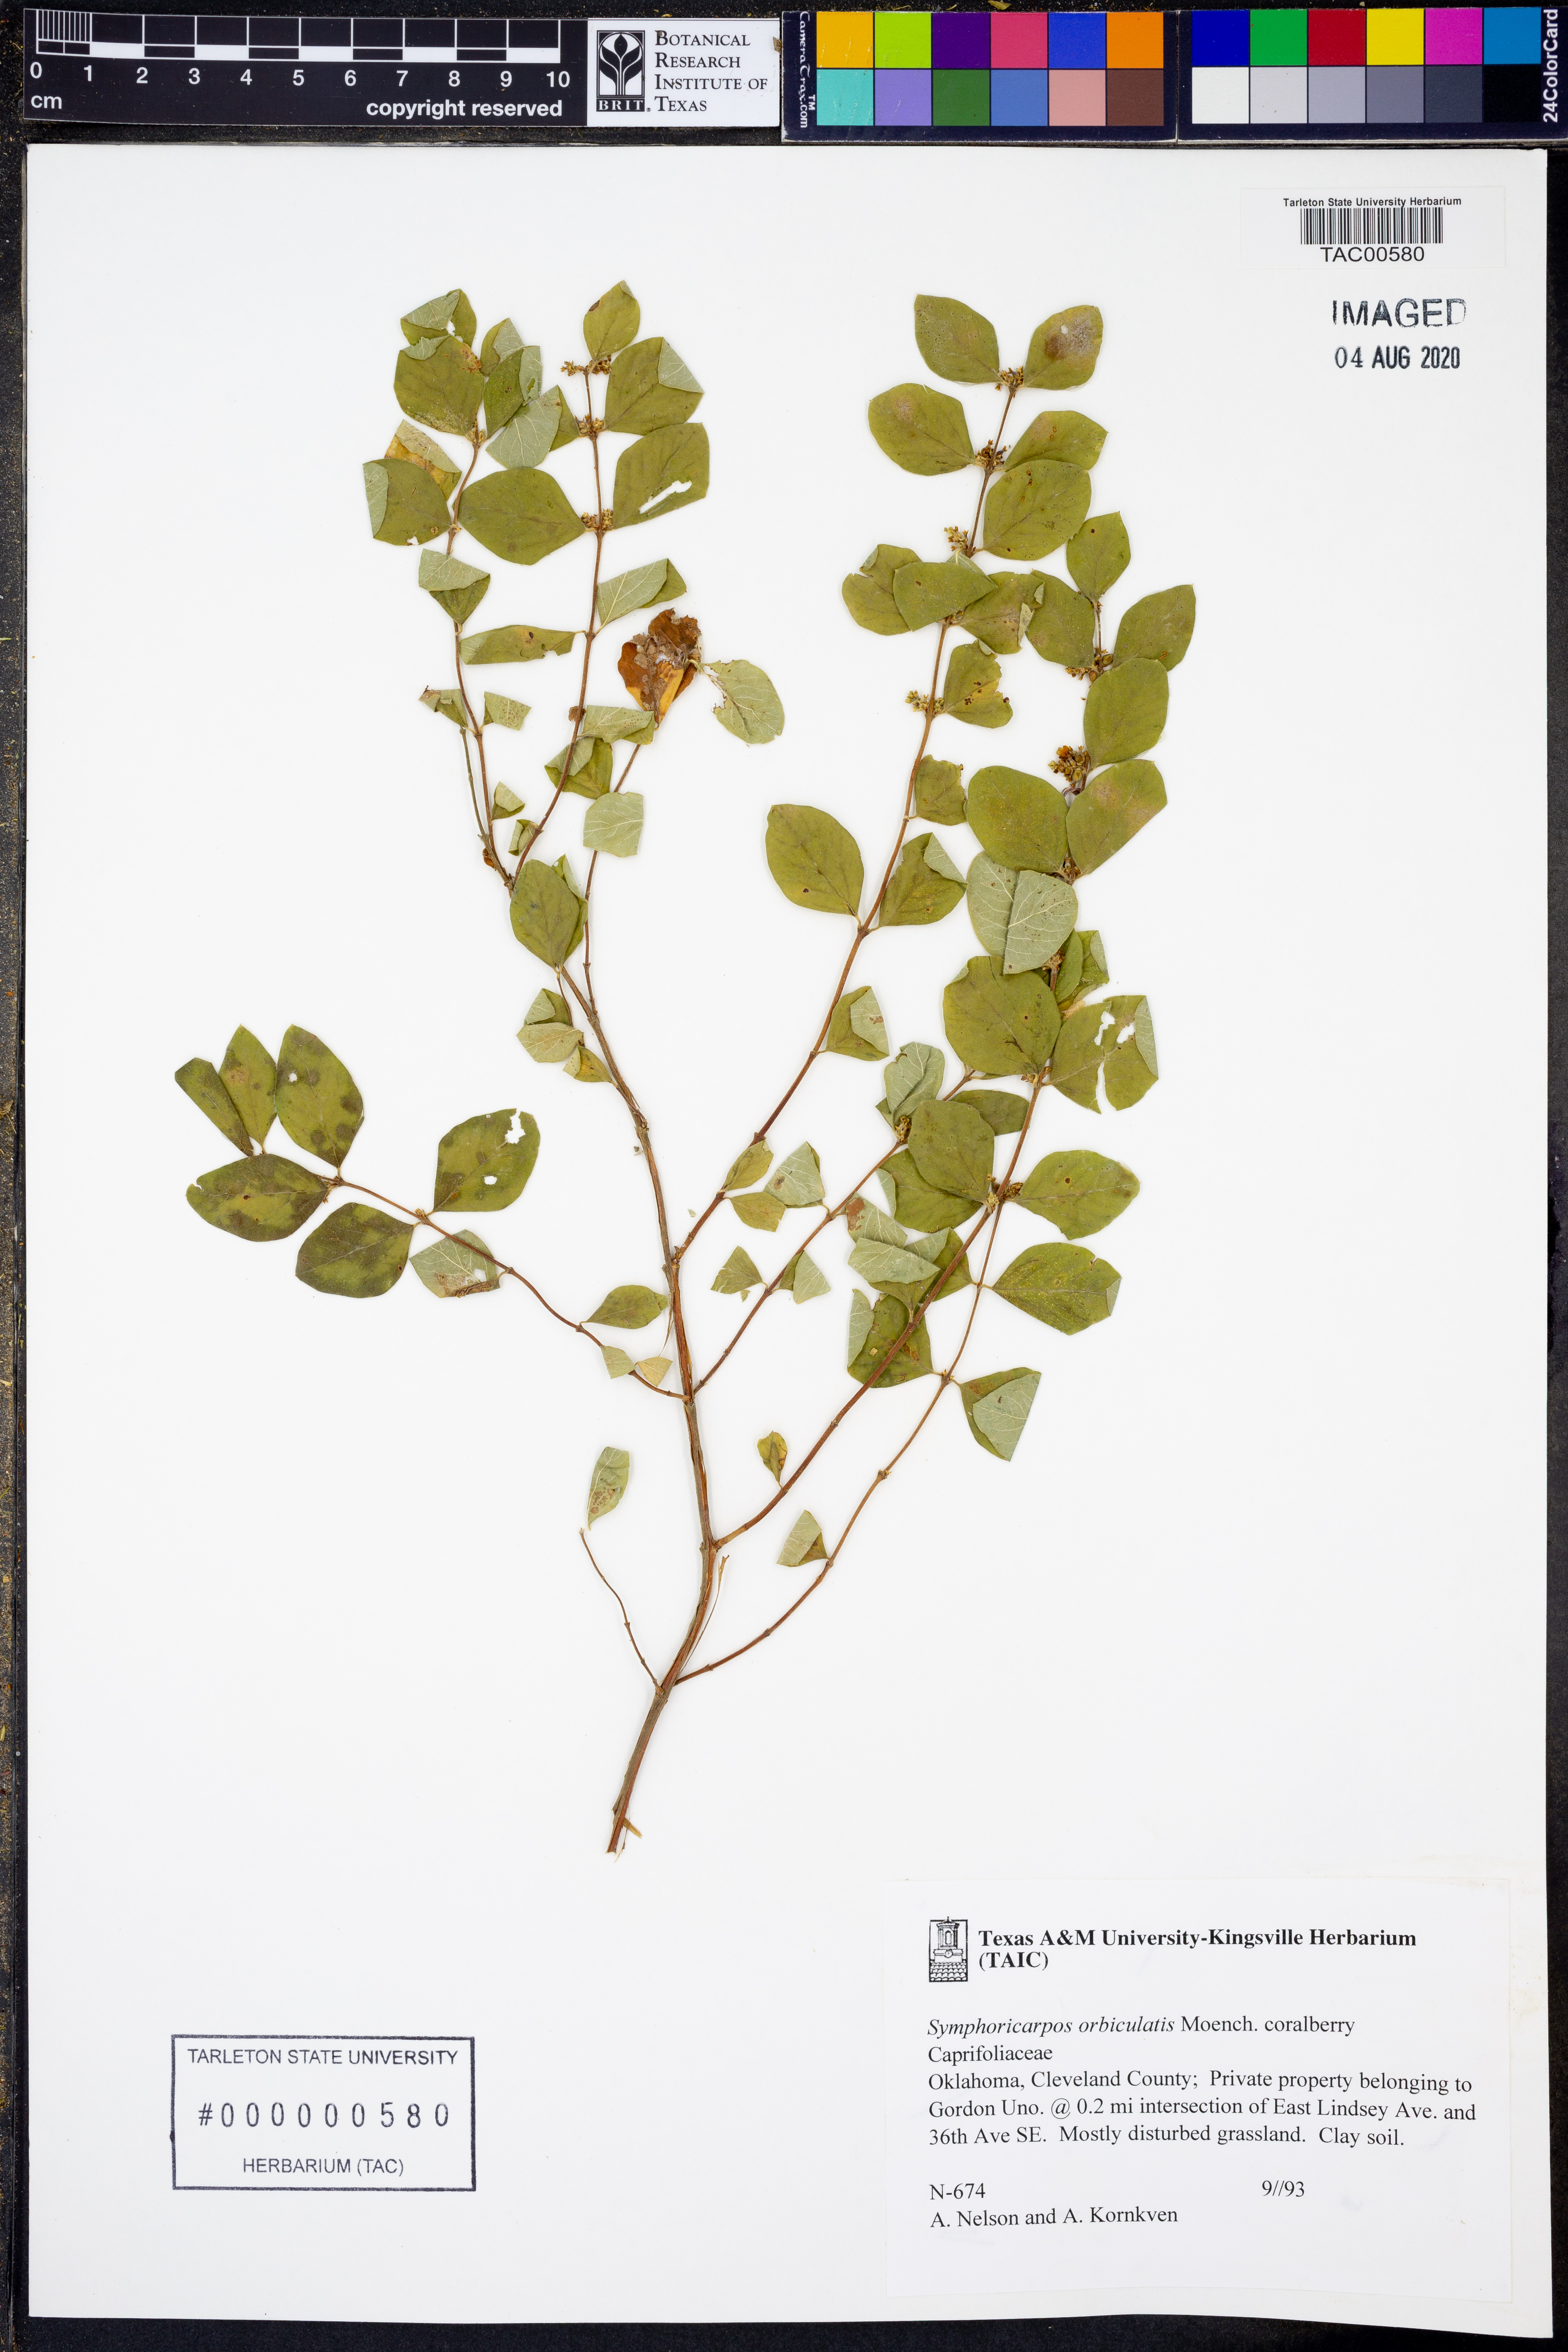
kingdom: Plantae
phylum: Tracheophyta
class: Magnoliopsida
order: Dipsacales
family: Caprifoliaceae
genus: Symphoricarpos
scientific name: Symphoricarpos orbiculatus
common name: Coralberry
